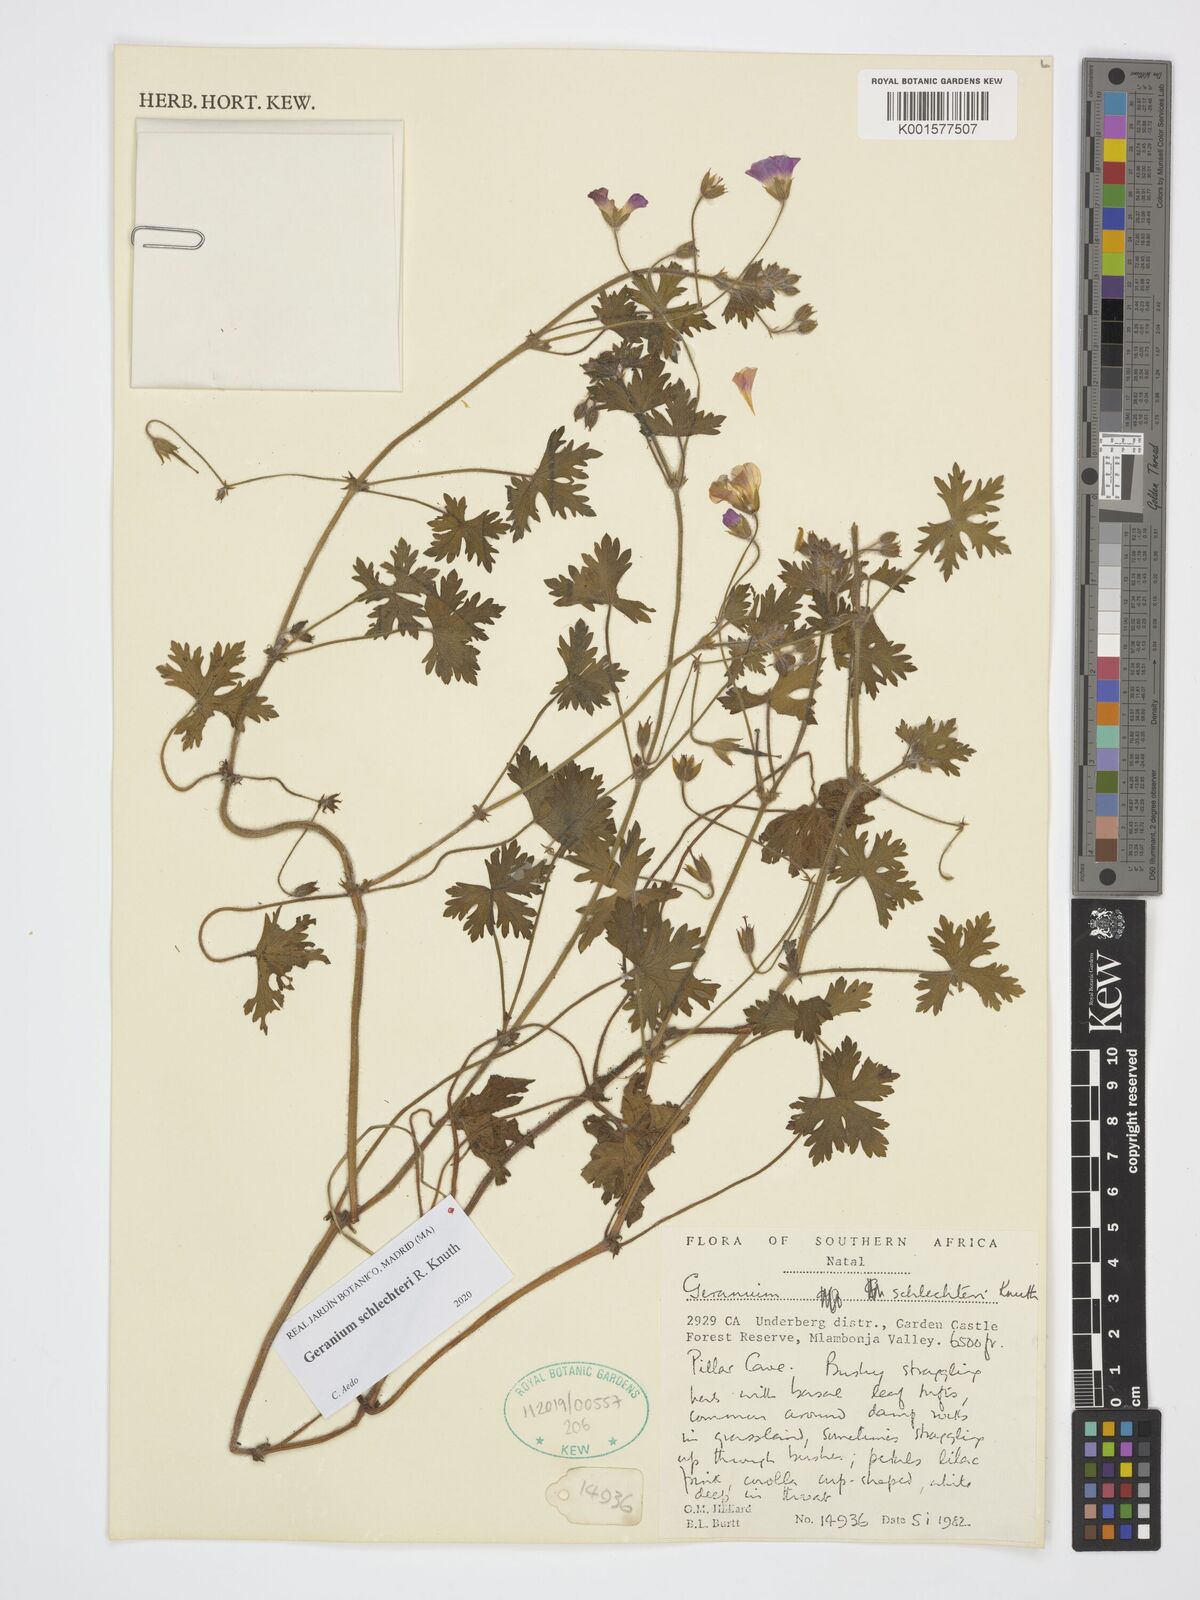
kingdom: Plantae
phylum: Tracheophyta
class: Magnoliopsida
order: Geraniales
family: Geraniaceae
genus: Geranium
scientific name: Geranium schlechteri
